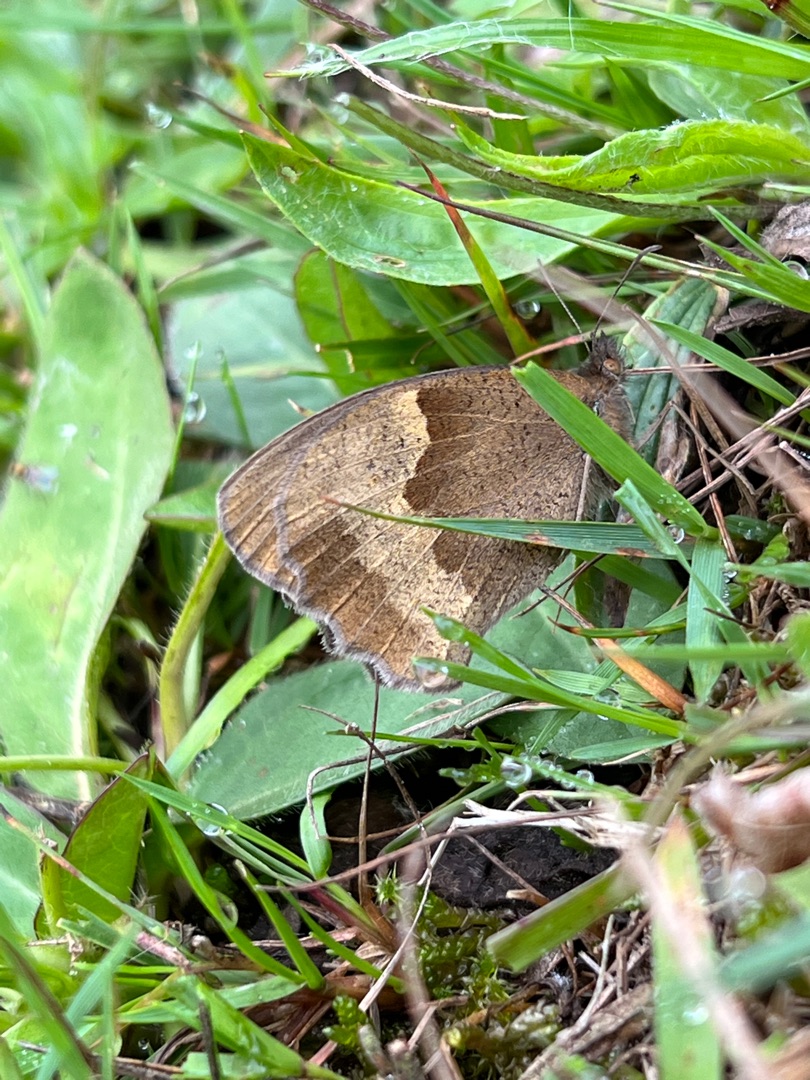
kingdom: Animalia
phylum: Arthropoda
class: Insecta
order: Lepidoptera
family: Nymphalidae
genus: Maniola
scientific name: Maniola jurtina
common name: Græsrandøje
